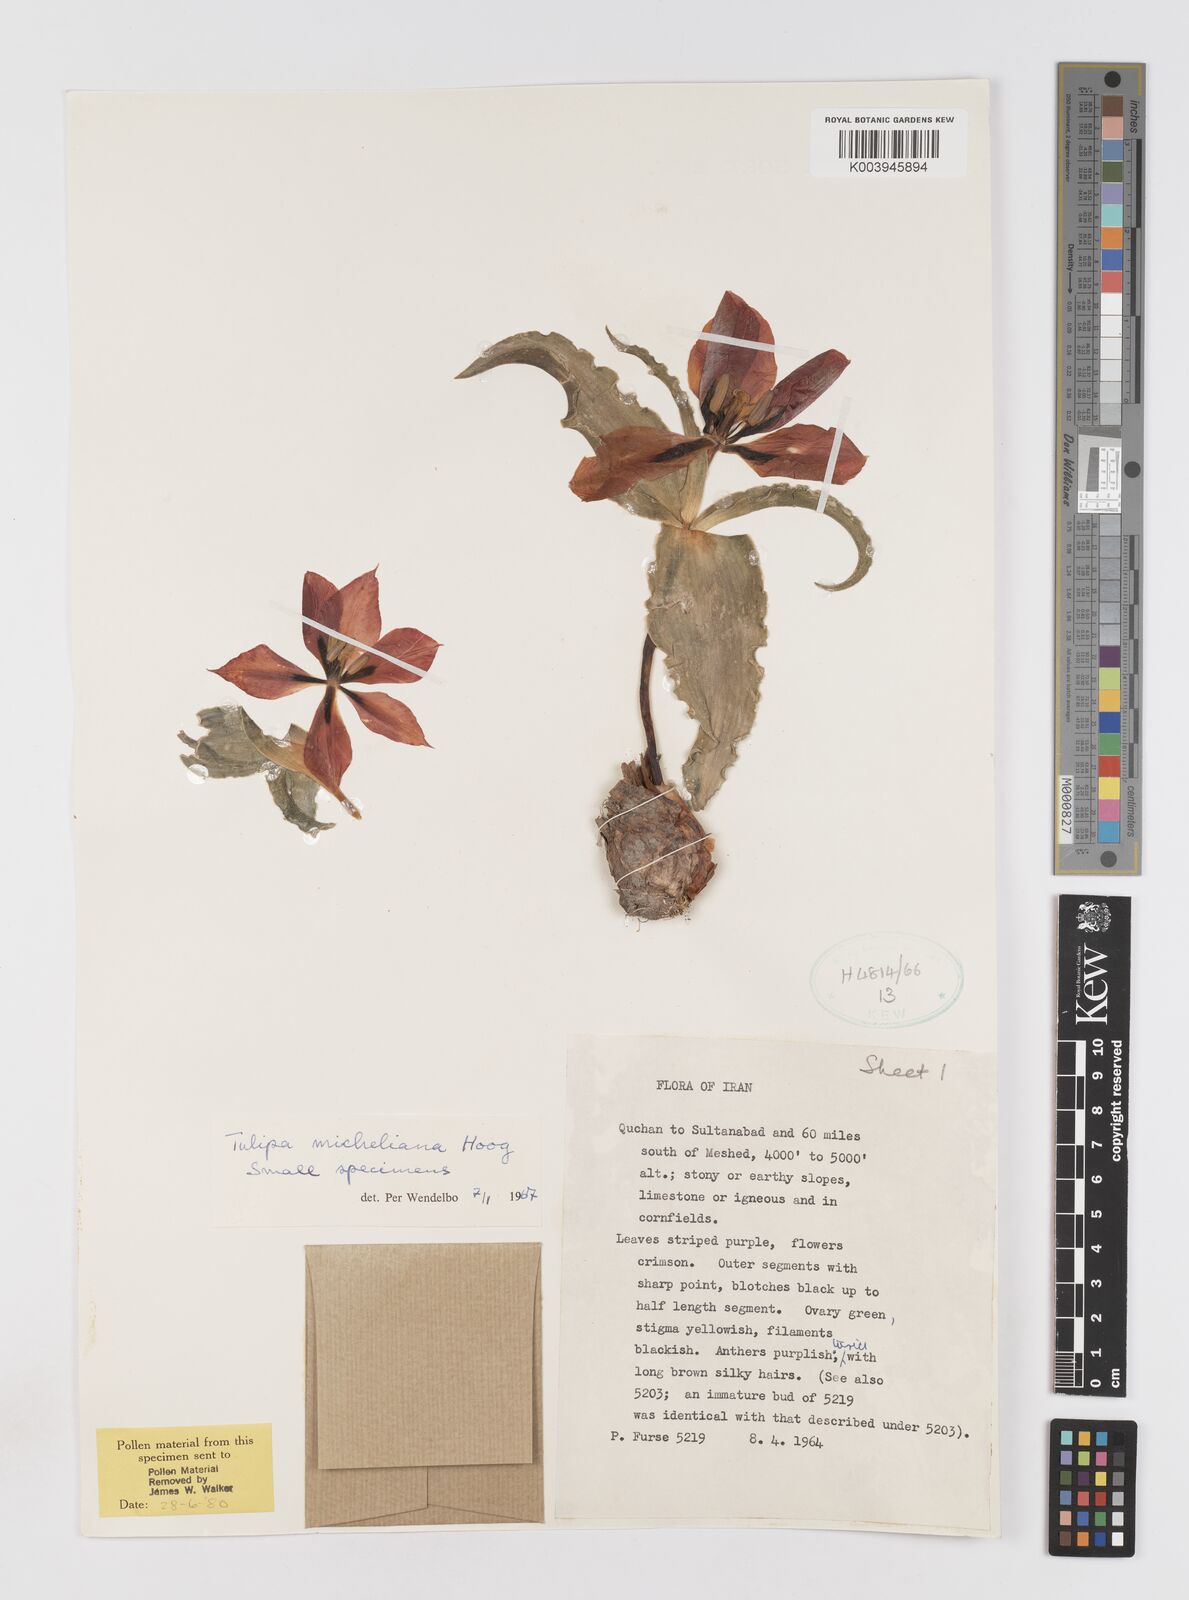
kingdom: Plantae
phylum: Tracheophyta
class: Liliopsida
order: Liliales
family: Liliaceae
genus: Tulipa
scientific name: Tulipa undulatifolia
